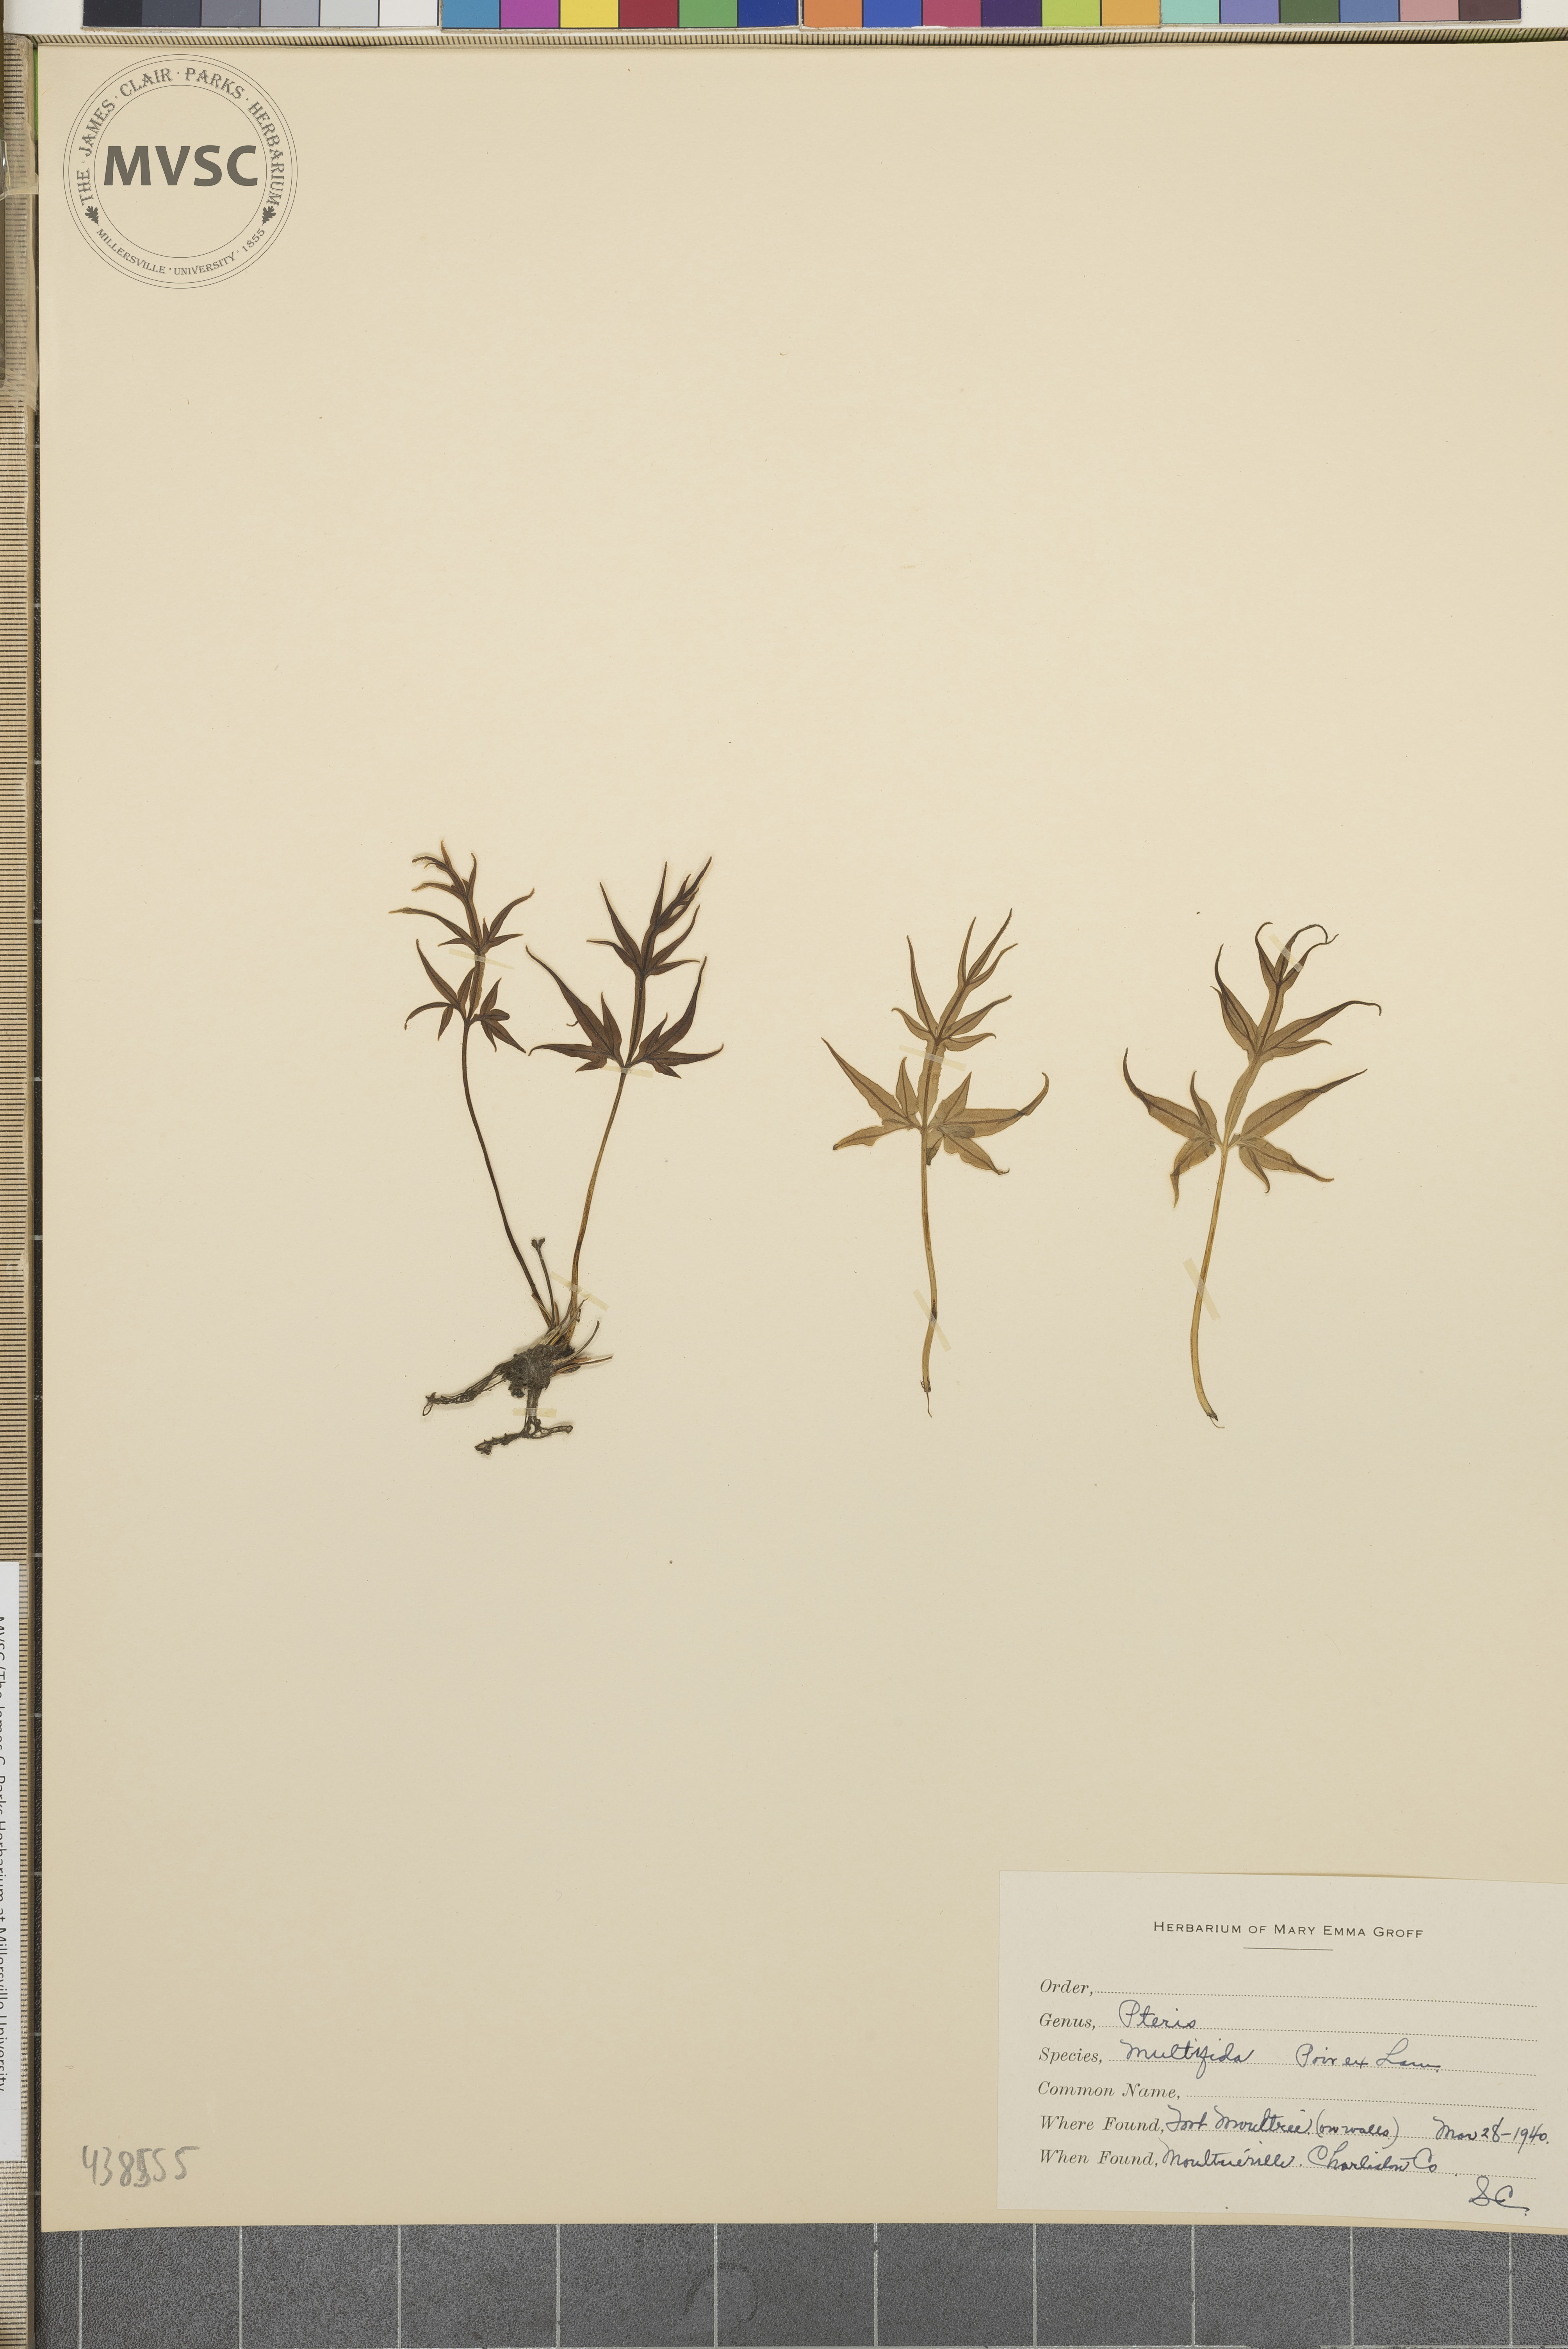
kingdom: Plantae
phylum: Tracheophyta
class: Polypodiopsida
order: Polypodiales
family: Pteridaceae
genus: Pteris
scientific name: Pteris multifida
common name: Spider brake
